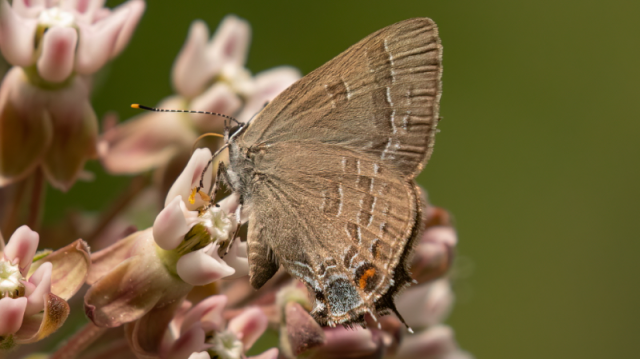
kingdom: Animalia
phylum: Arthropoda
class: Insecta
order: Lepidoptera
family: Lycaenidae
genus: Satyrium
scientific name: Satyrium calanus
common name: Banded Hairstreak
